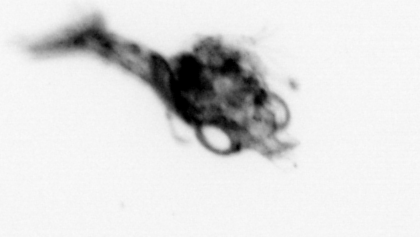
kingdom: Animalia
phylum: Arthropoda
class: Malacostraca
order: Decapoda
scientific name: Decapoda
